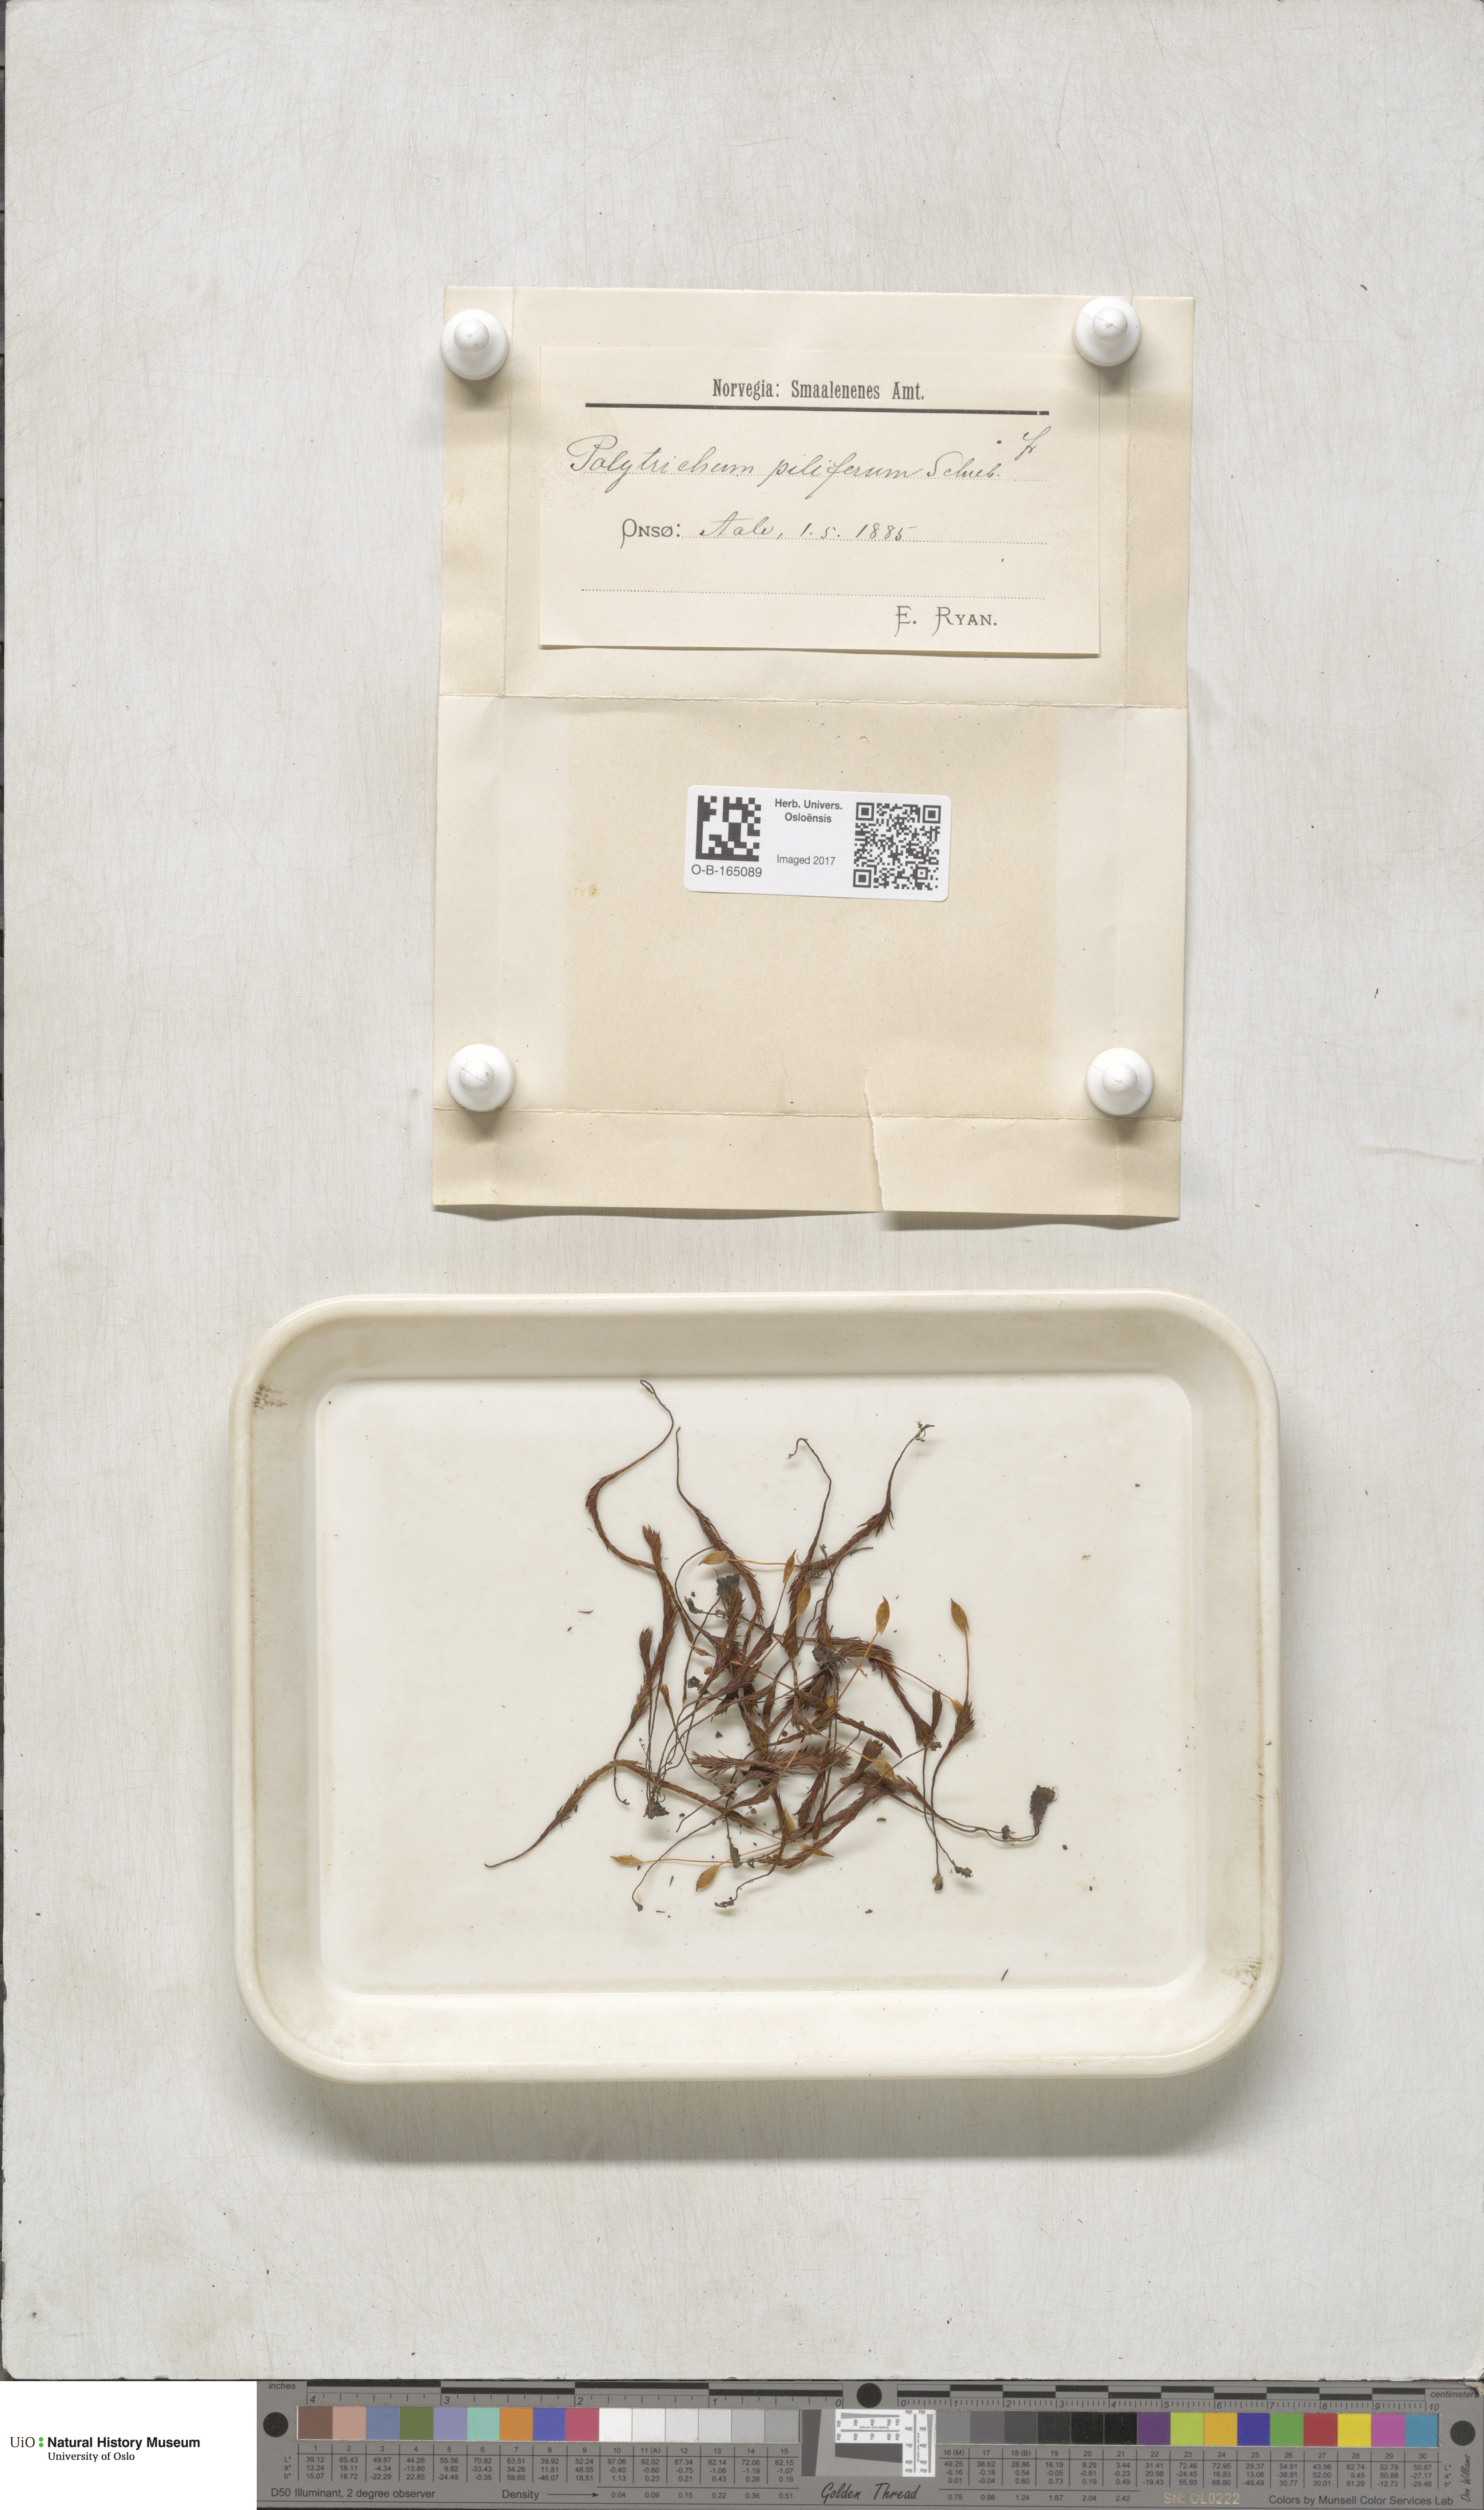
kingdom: Plantae
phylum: Bryophyta
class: Polytrichopsida
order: Polytrichales
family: Polytrichaceae
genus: Polytrichum
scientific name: Polytrichum piliferum
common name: Bristly haircap
